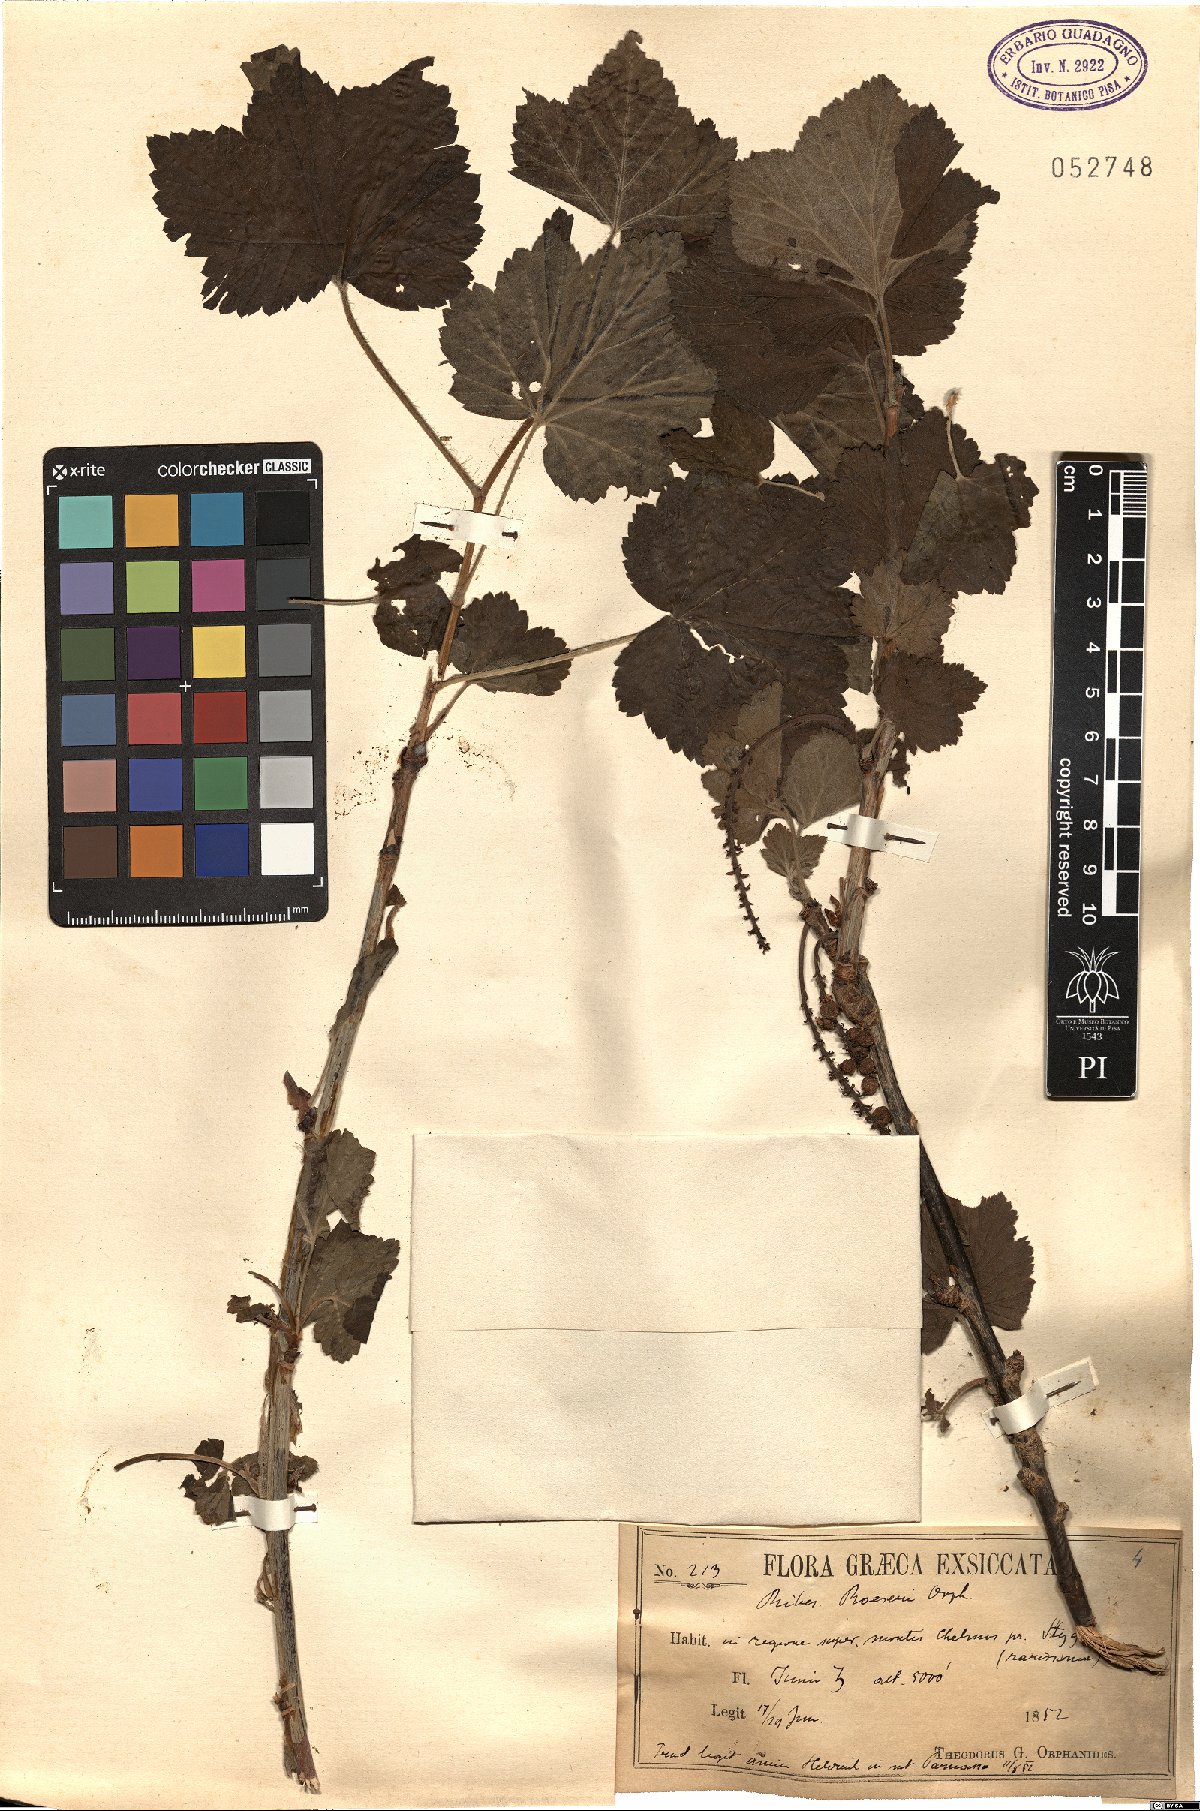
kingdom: Plantae
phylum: Tracheophyta
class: Magnoliopsida
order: Saxifragales
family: Grossulariaceae
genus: Ribes
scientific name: Ribes multiflorum
